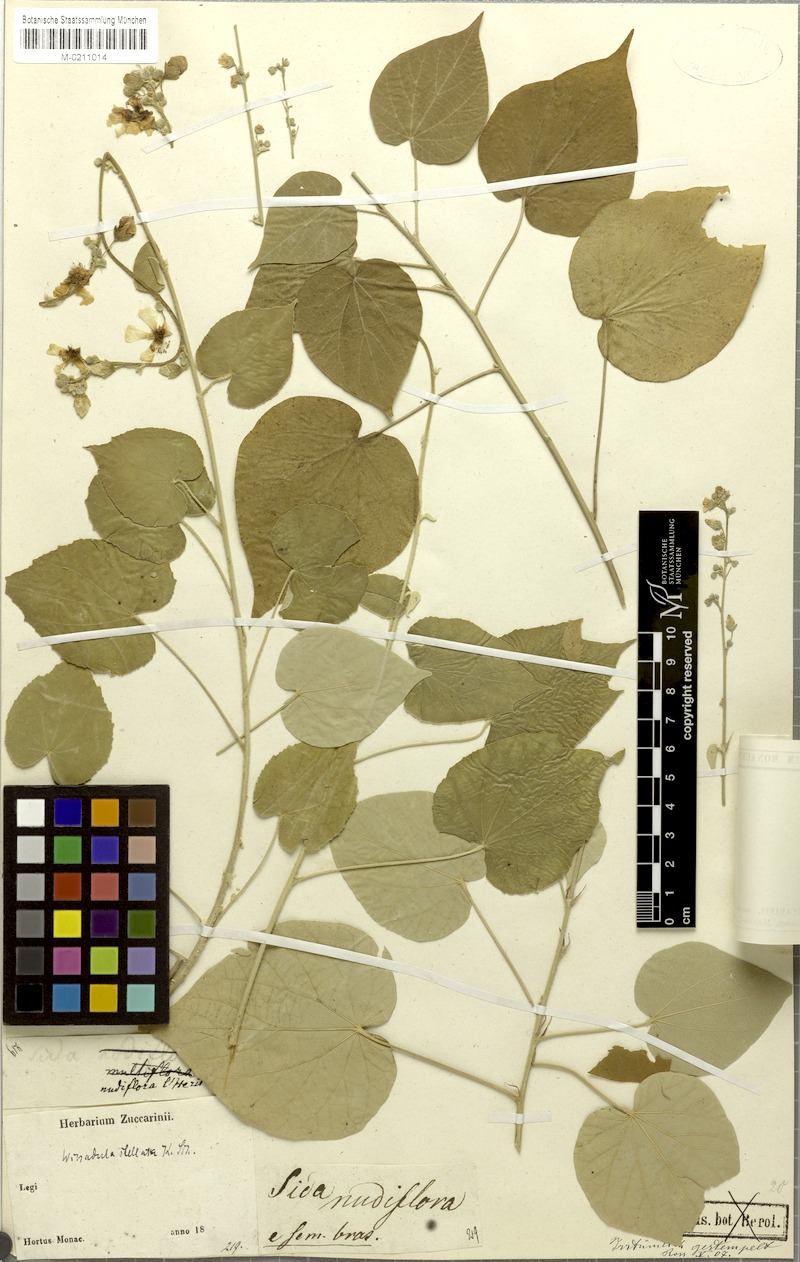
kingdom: Plantae
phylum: Tracheophyta
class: Magnoliopsida
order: Malvales
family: Malvaceae
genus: Wissadula
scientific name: Wissadula stellata
